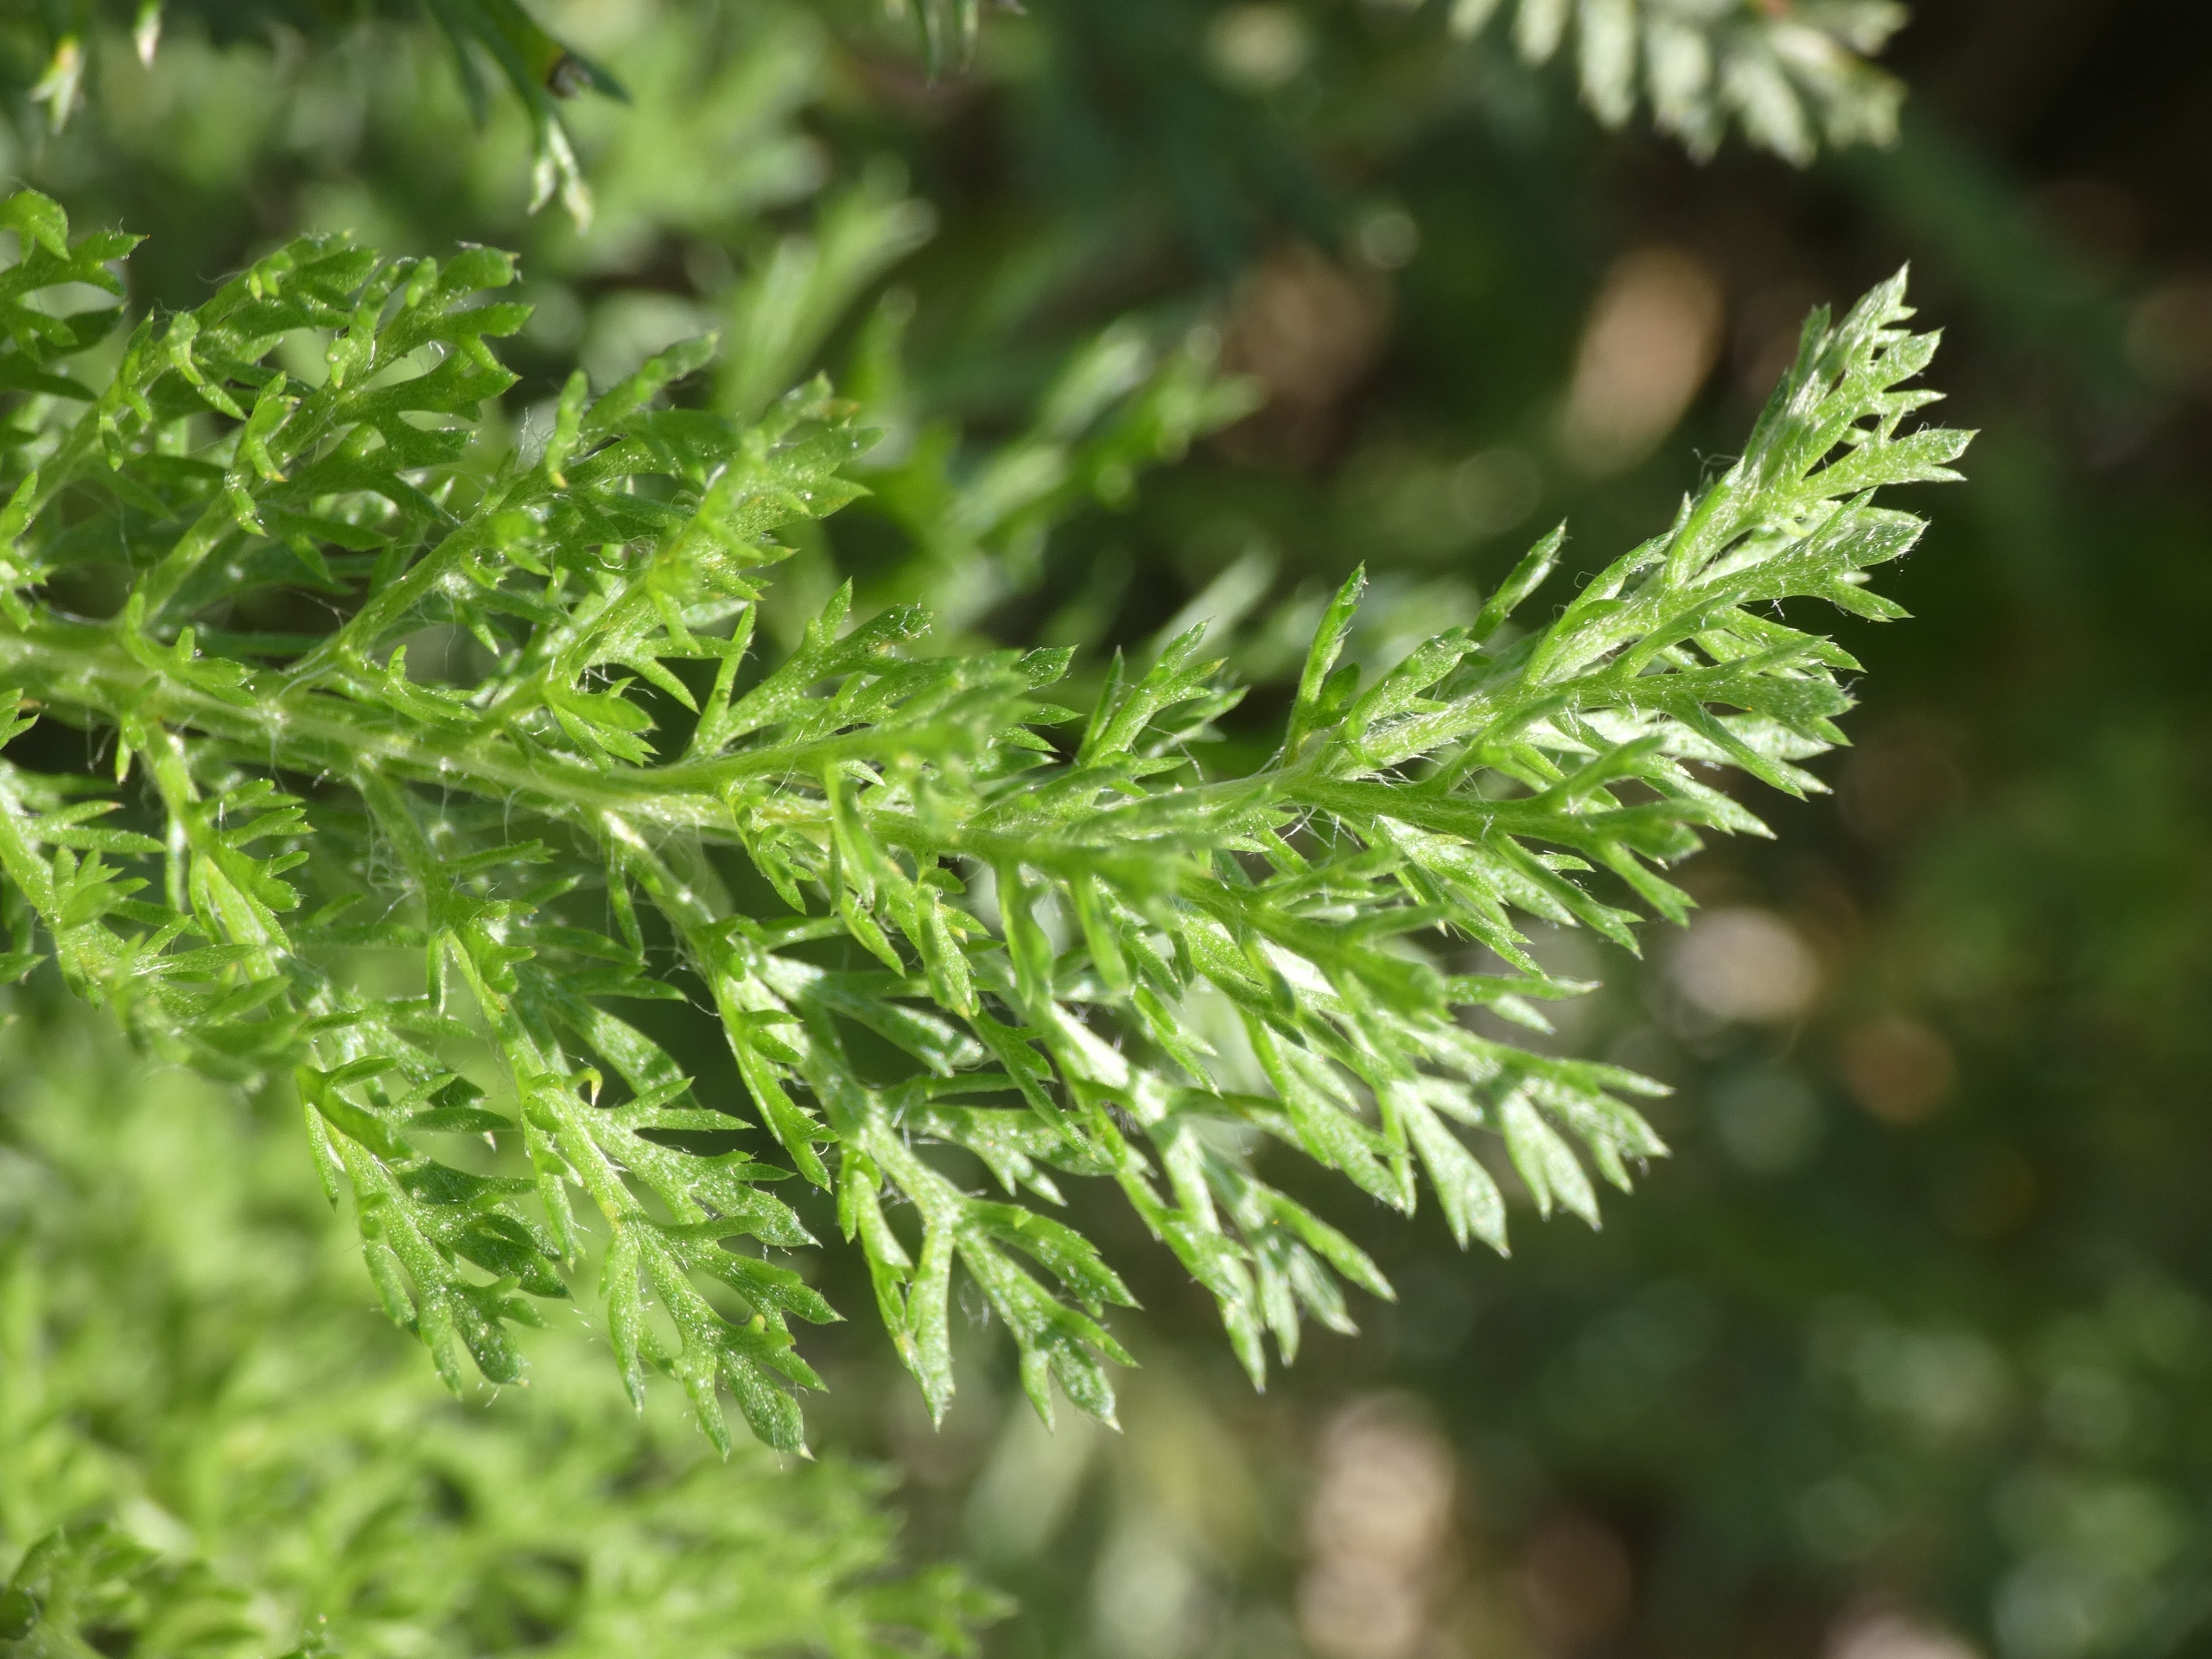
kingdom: Plantae
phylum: Tracheophyta
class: Magnoliopsida
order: Asterales
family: Asteraceae
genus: Achillea
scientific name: Achillea millefolium
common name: Almindelig røllike
